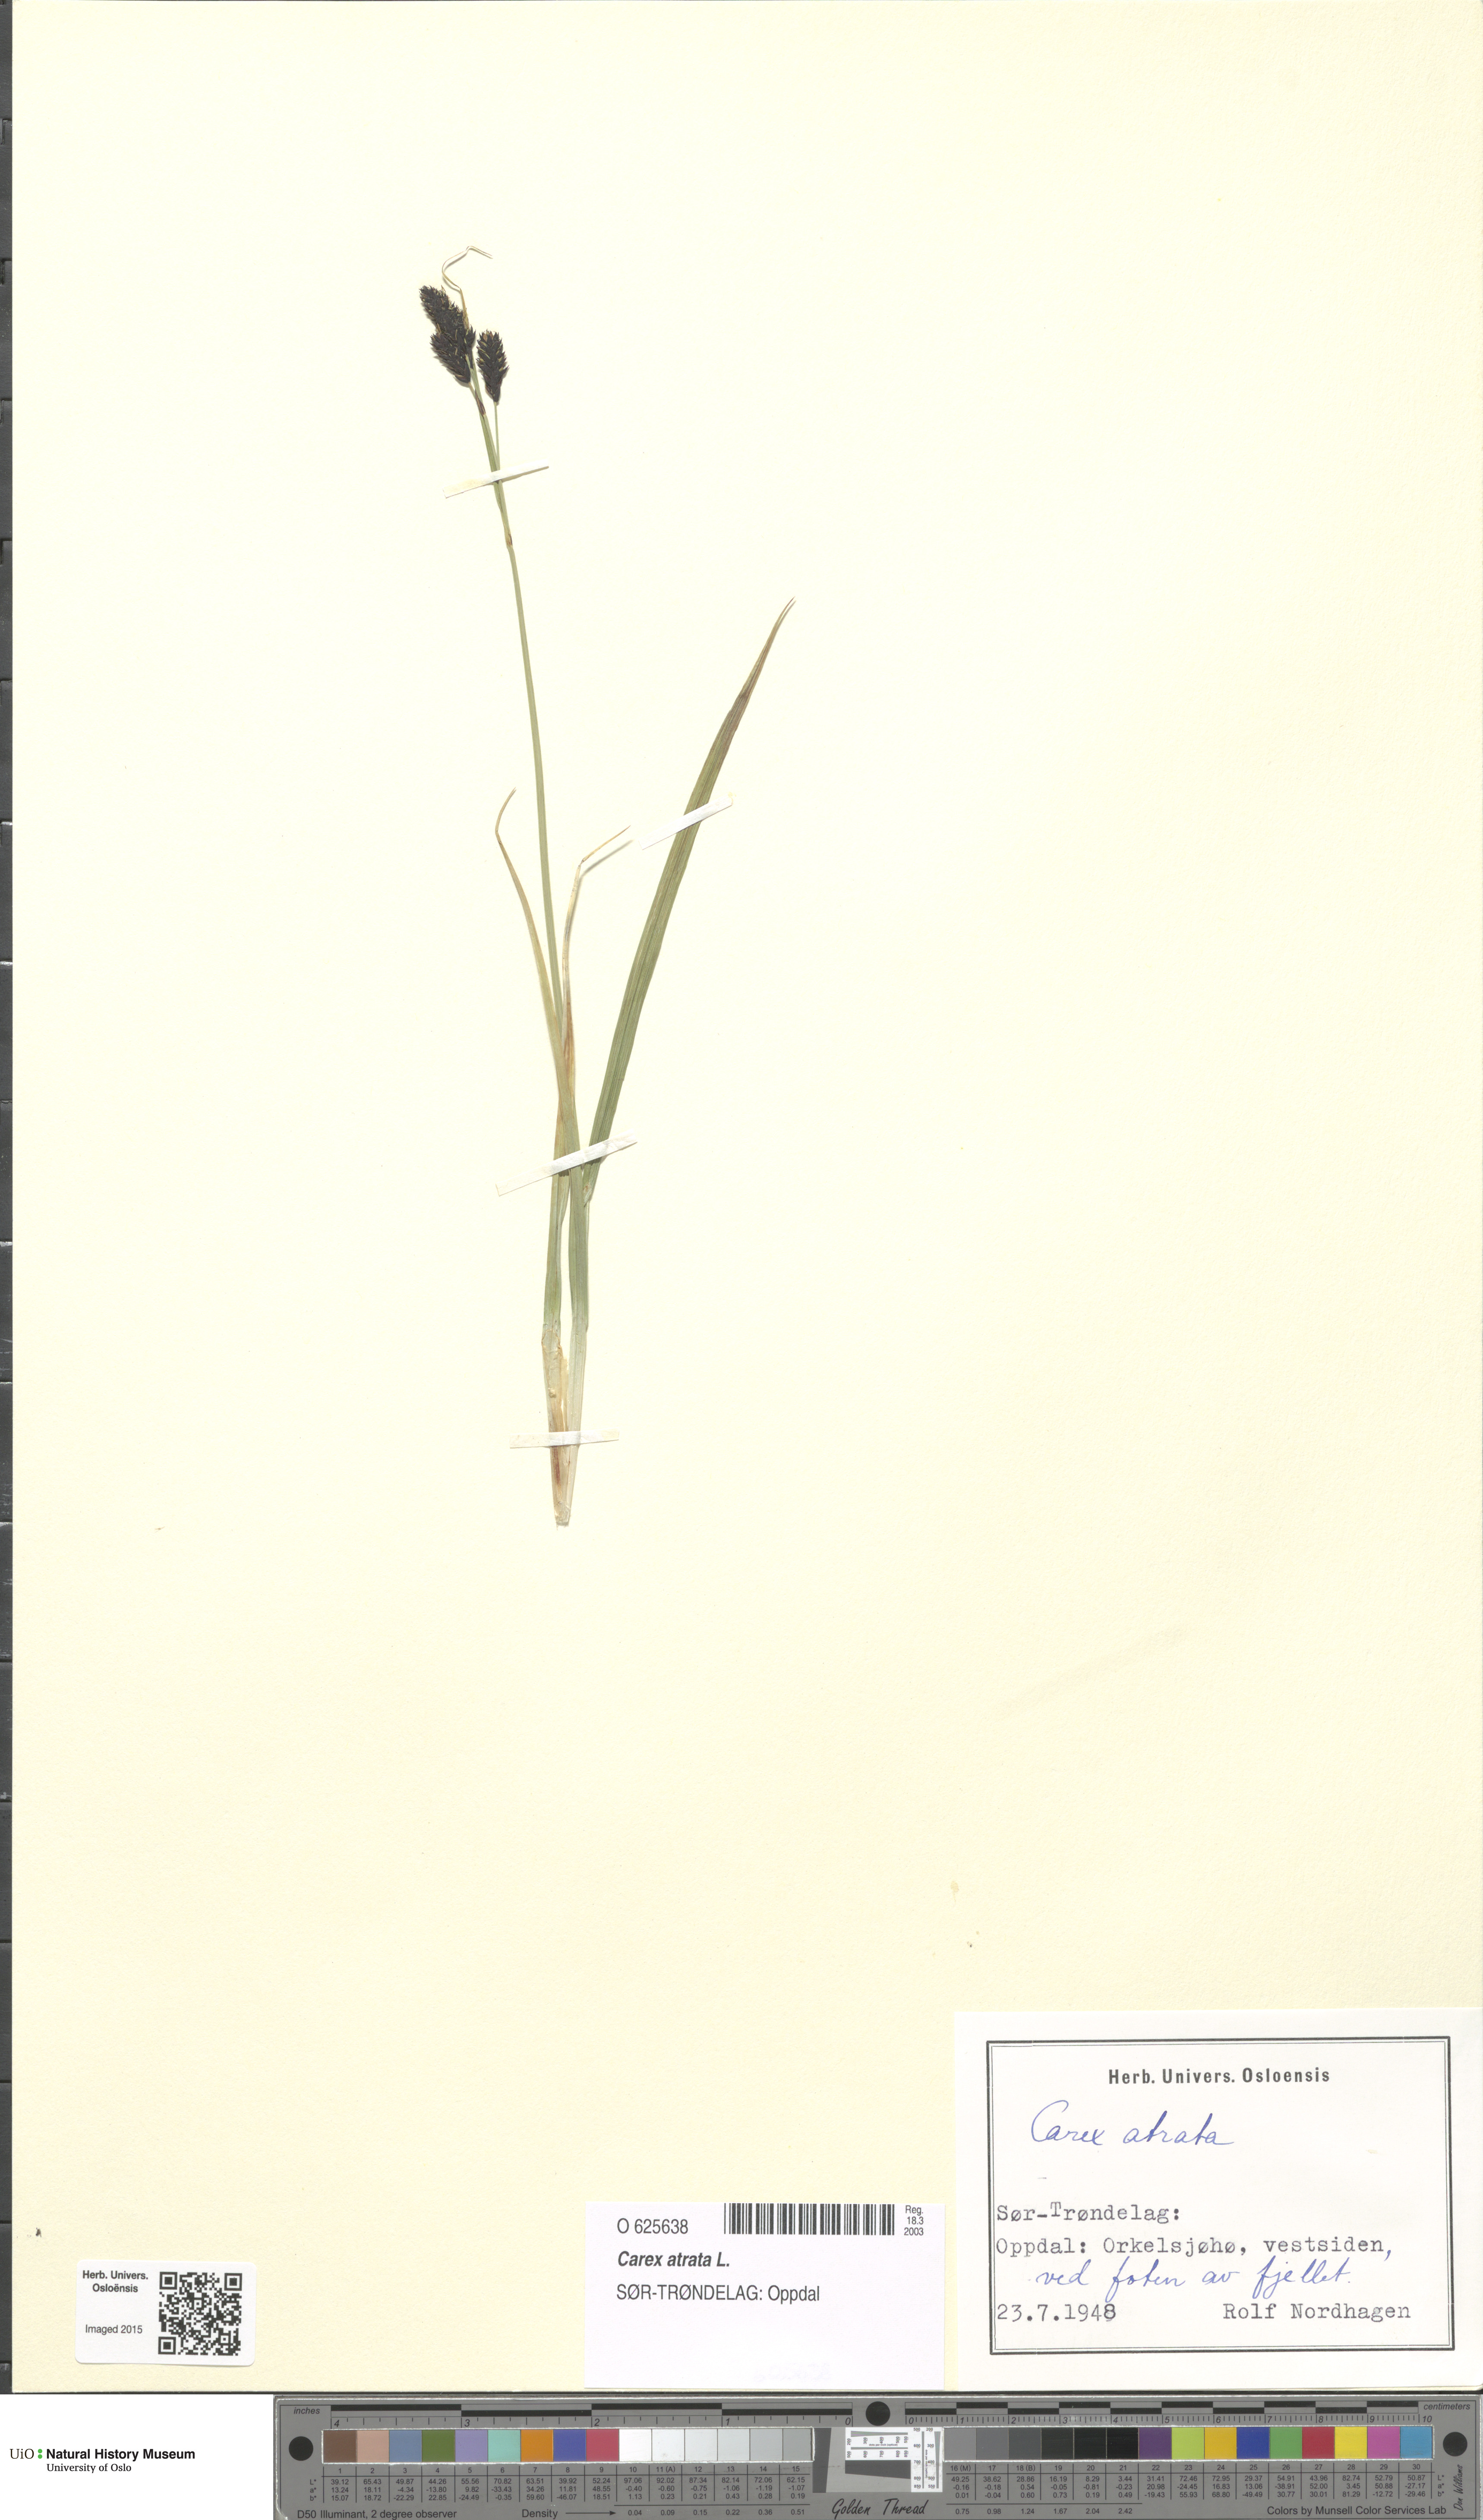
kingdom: Plantae
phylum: Tracheophyta
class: Liliopsida
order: Poales
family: Cyperaceae
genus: Carex
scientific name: Carex atrata
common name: Black alpine sedge
